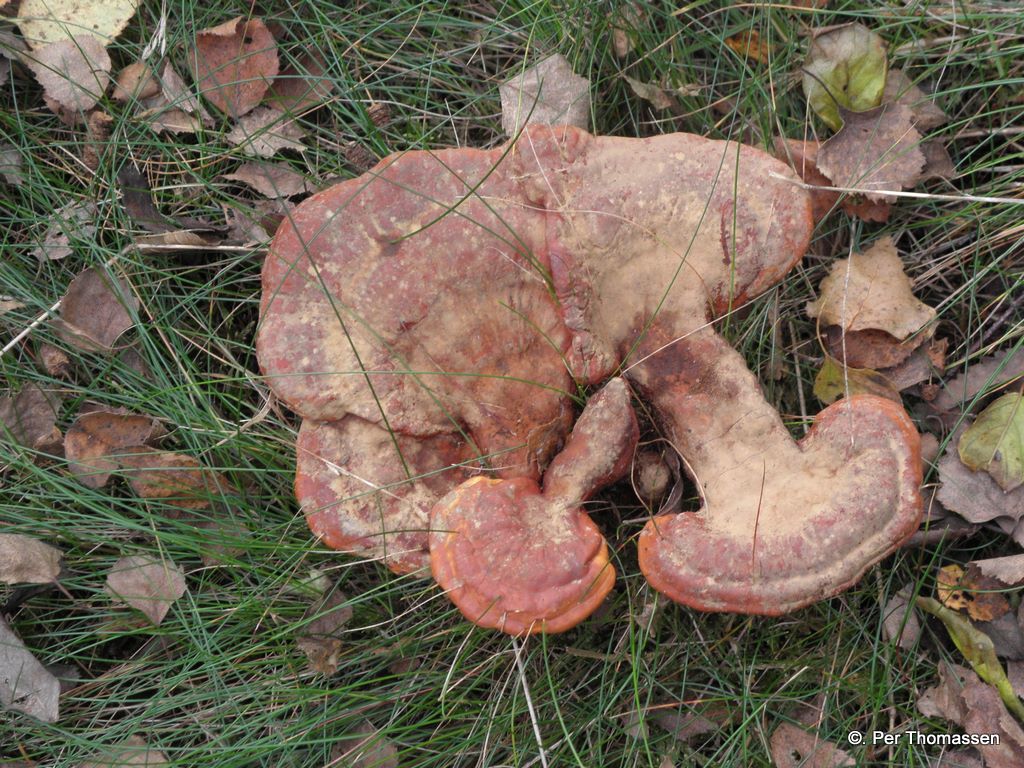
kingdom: Fungi
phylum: Basidiomycota
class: Agaricomycetes
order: Polyporales
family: Polyporaceae
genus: Ganoderma
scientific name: Ganoderma lucidum
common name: skinnende lakporesvamp
